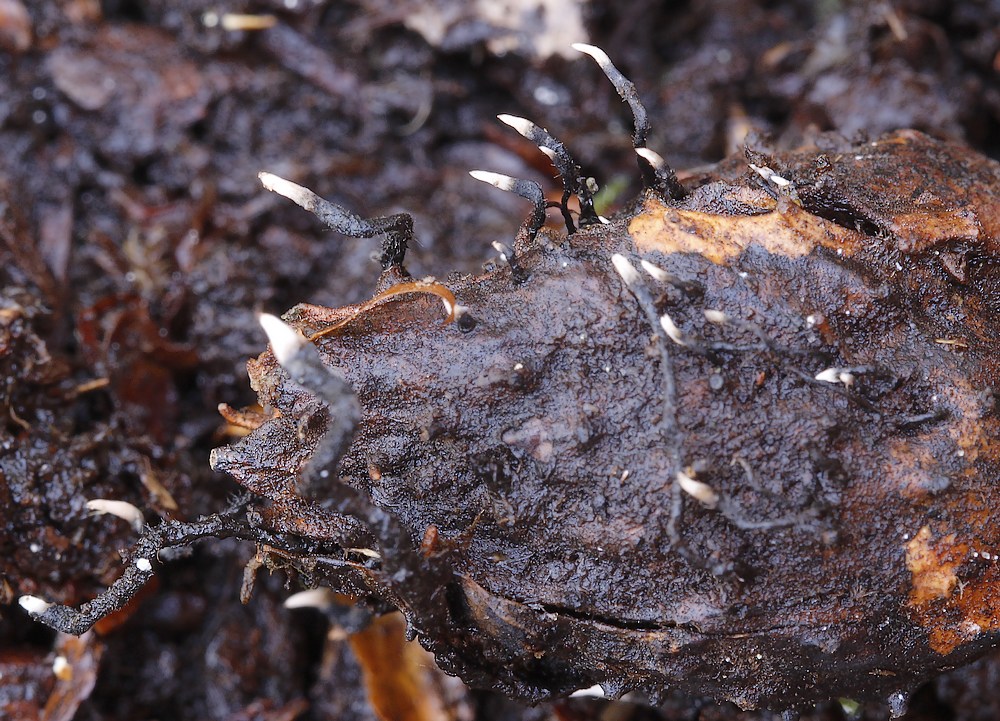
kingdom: Fungi
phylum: Ascomycota
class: Sordariomycetes
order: Xylariales
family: Xylariaceae
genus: Xylaria
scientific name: Xylaria carpophila
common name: bogskål-stødsvamp
